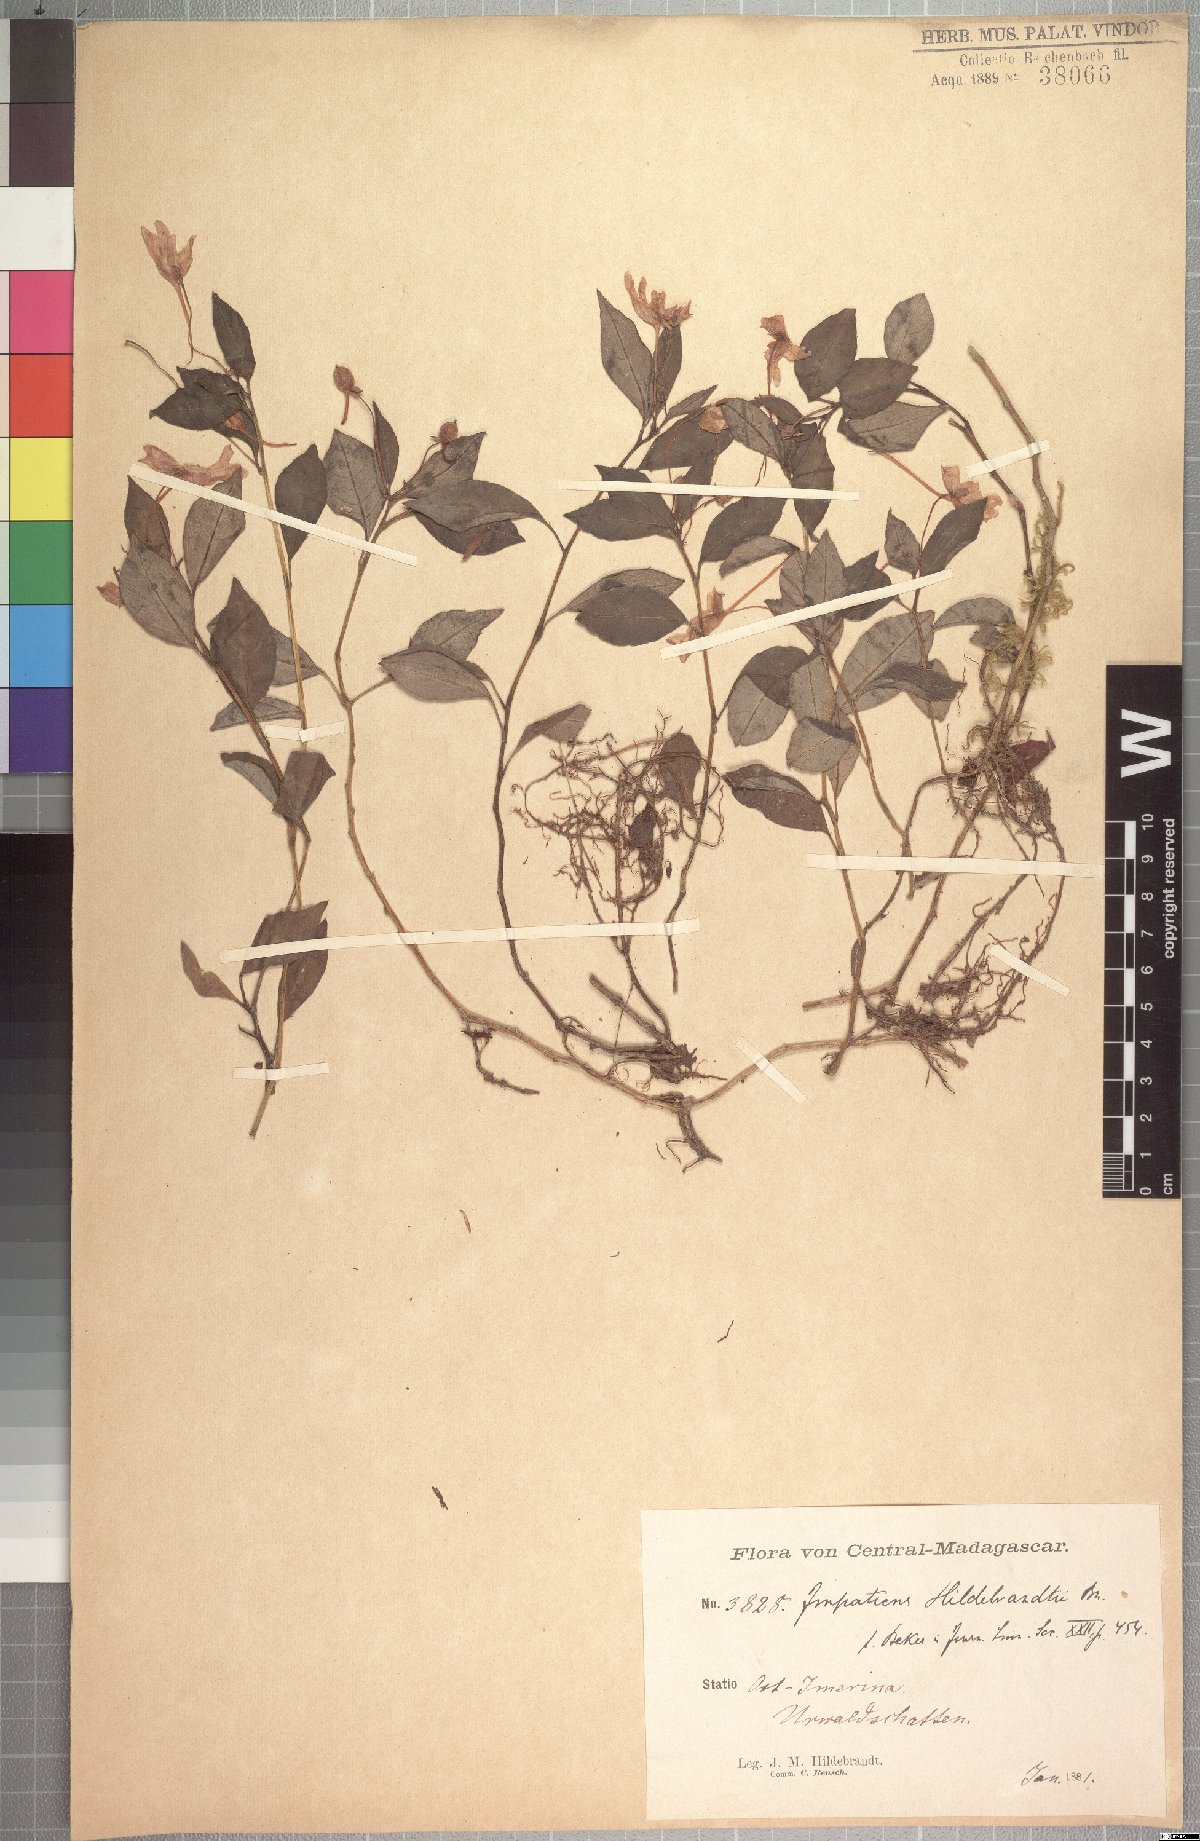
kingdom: Plantae
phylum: Tracheophyta
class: Magnoliopsida
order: Ericales
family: Balsaminaceae
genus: Impatiens
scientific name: Impatiens hildebrandtii
